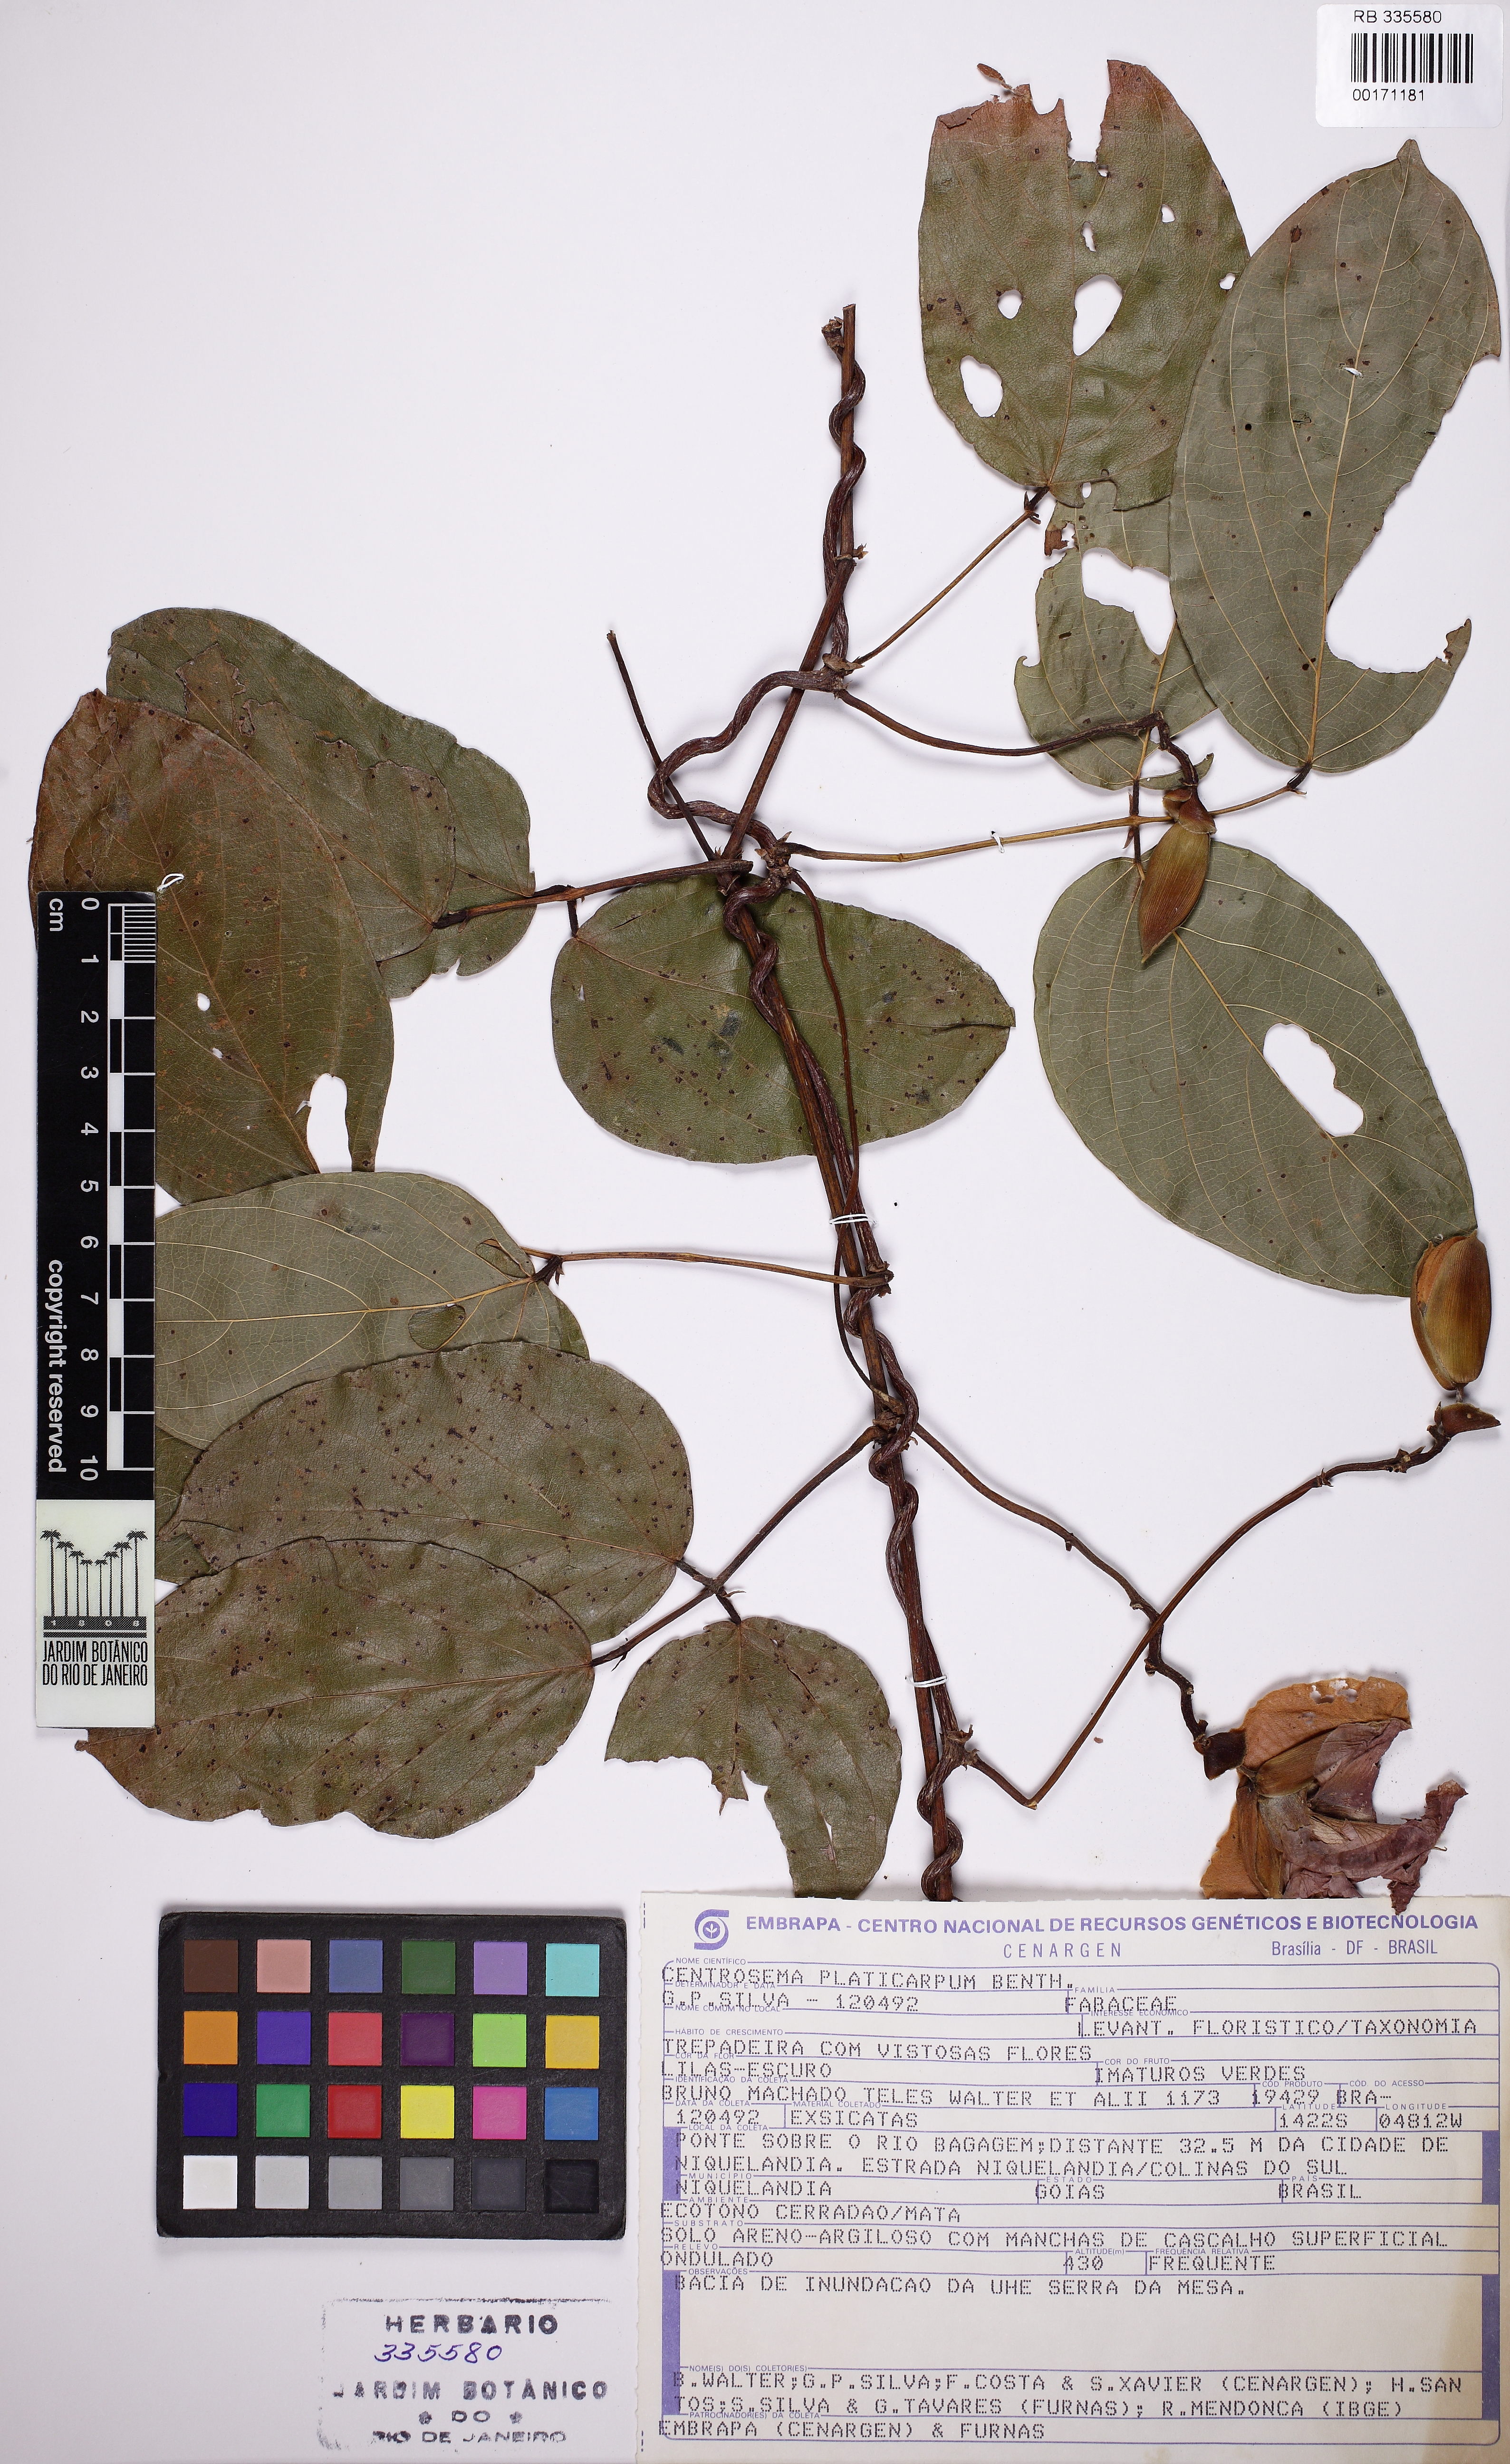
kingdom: Plantae
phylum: Tracheophyta
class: Magnoliopsida
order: Fabales
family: Fabaceae
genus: Centrosema
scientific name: Centrosema platycarpum
